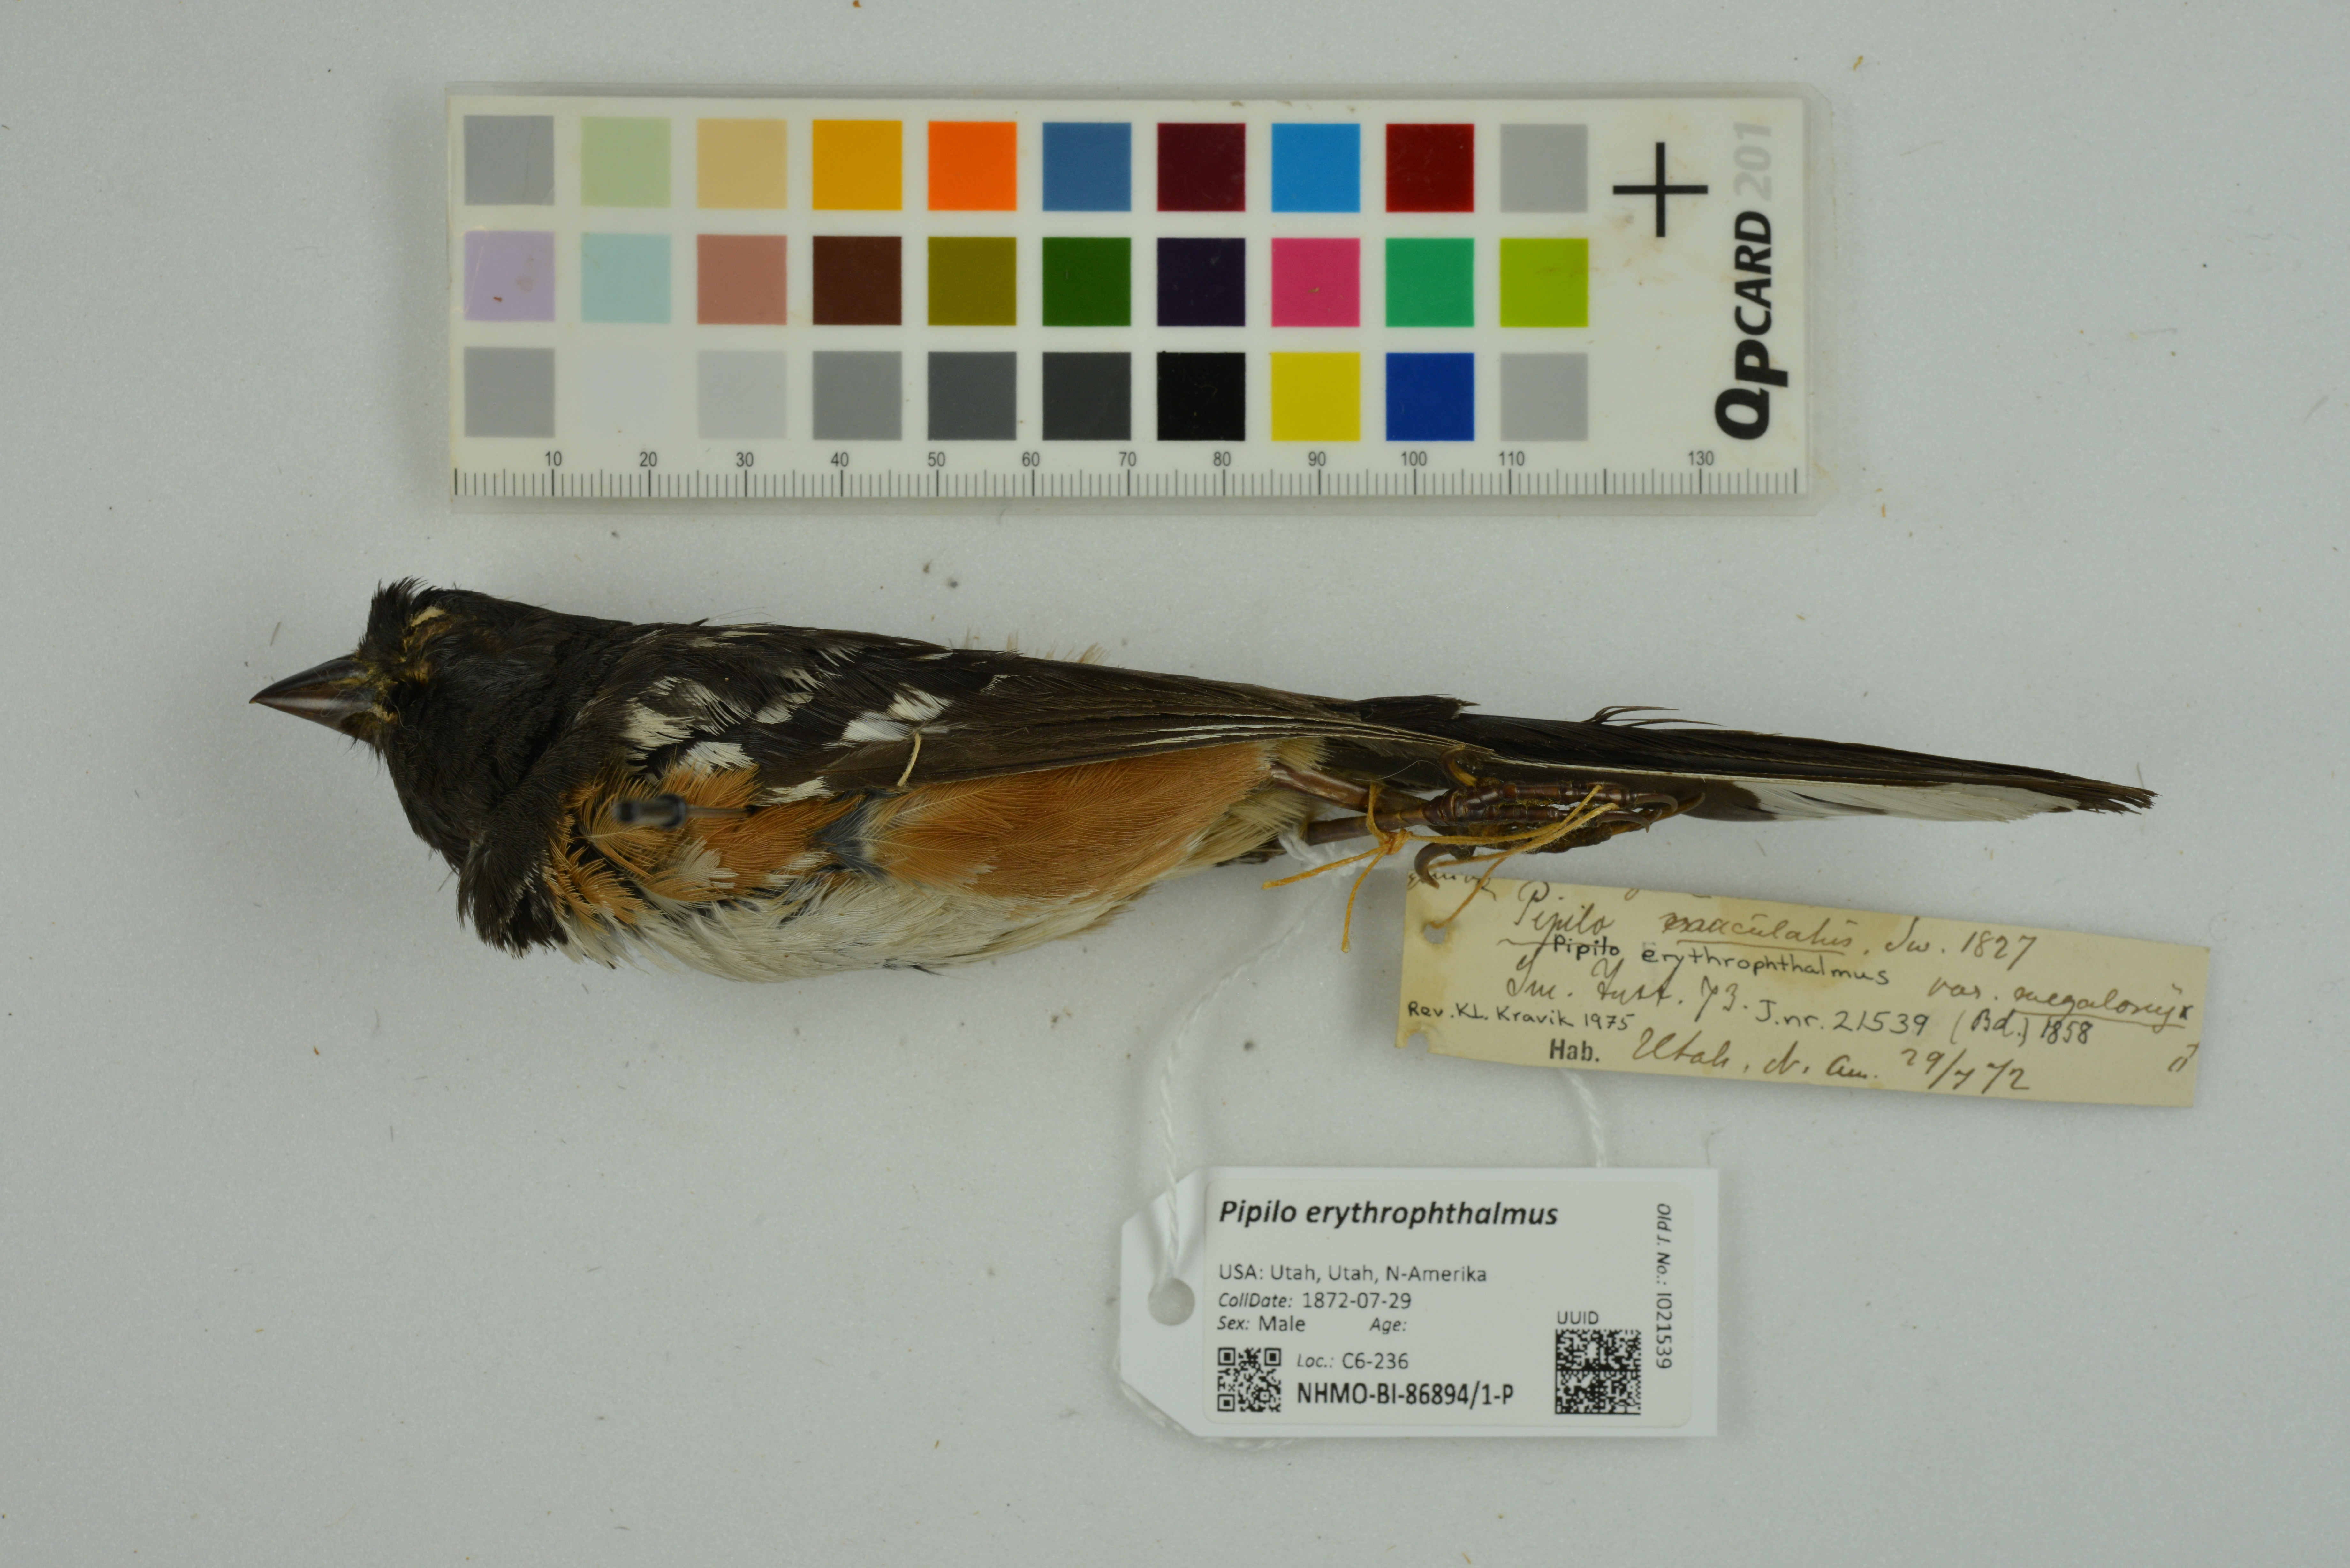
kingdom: Animalia
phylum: Chordata
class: Aves
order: Passeriformes
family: Passerellidae
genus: Pipilo
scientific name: Pipilo erythrophthalmus
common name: Eastern towhee
